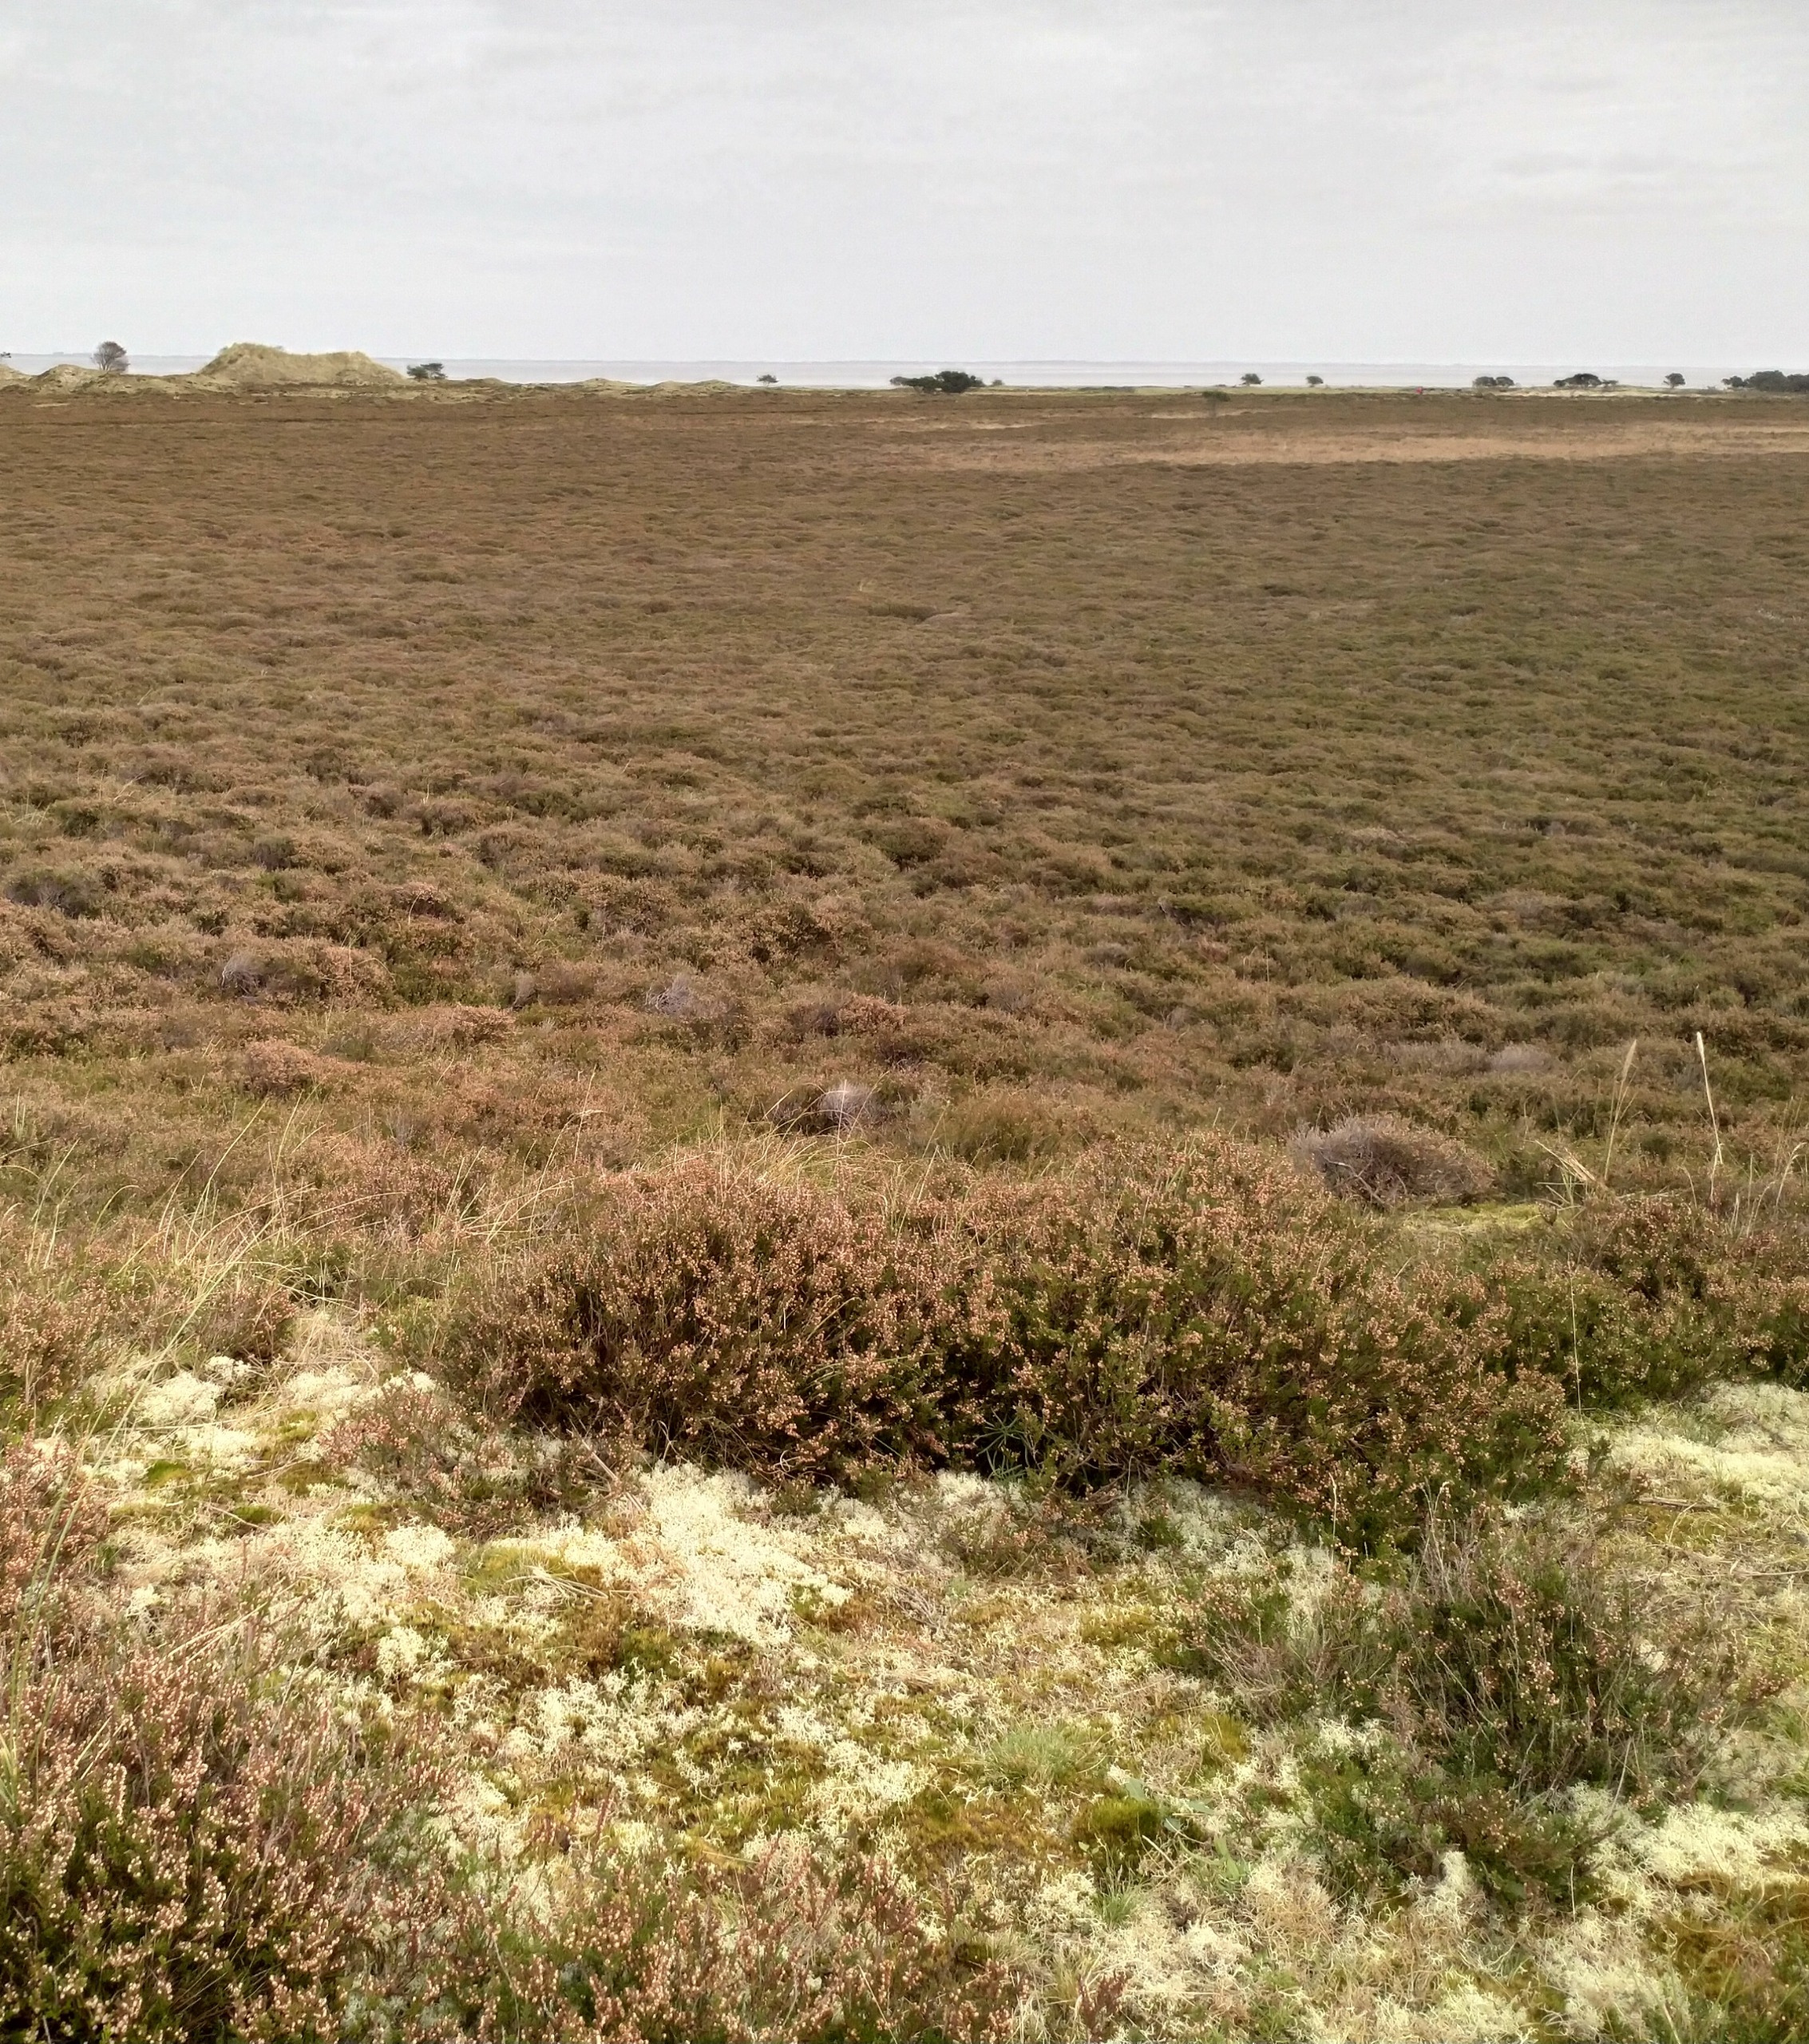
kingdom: Plantae
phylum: Tracheophyta
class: Magnoliopsida
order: Ericales
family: Ericaceae
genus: Calluna
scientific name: Calluna vulgaris
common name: Hedelyng
